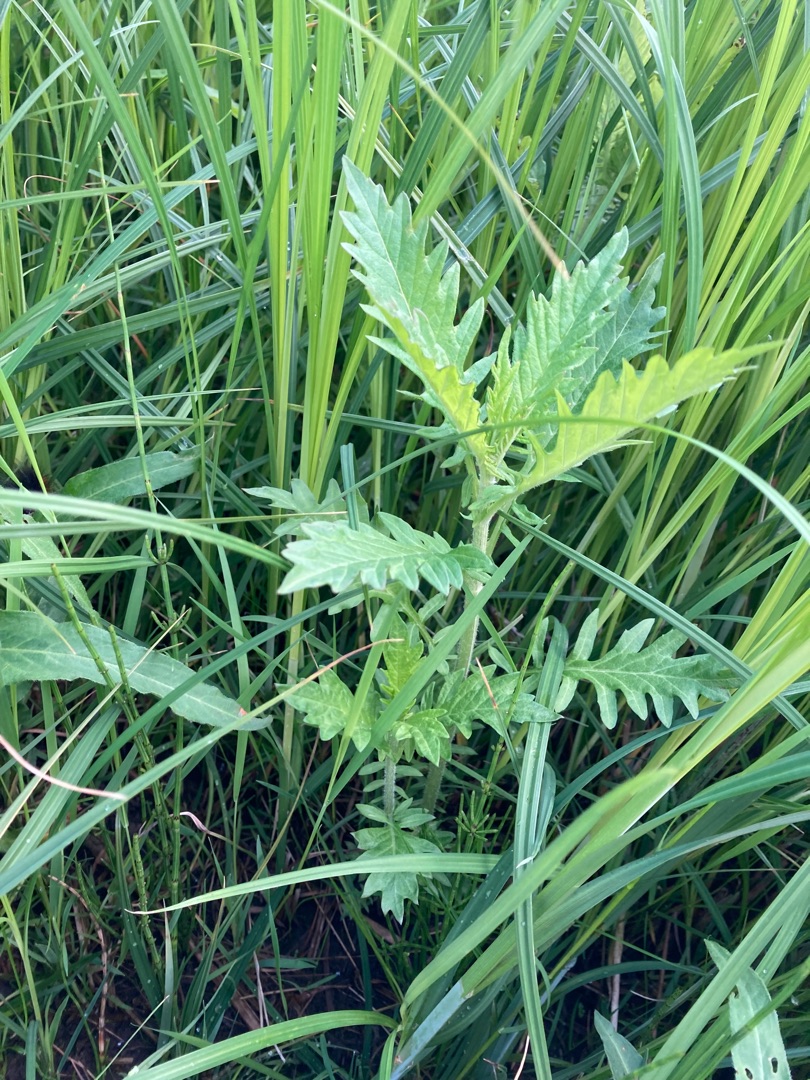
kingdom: Plantae
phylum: Tracheophyta
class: Magnoliopsida
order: Lamiales
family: Lamiaceae
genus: Lycopus
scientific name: Lycopus europaeus
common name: Sværtevæld
